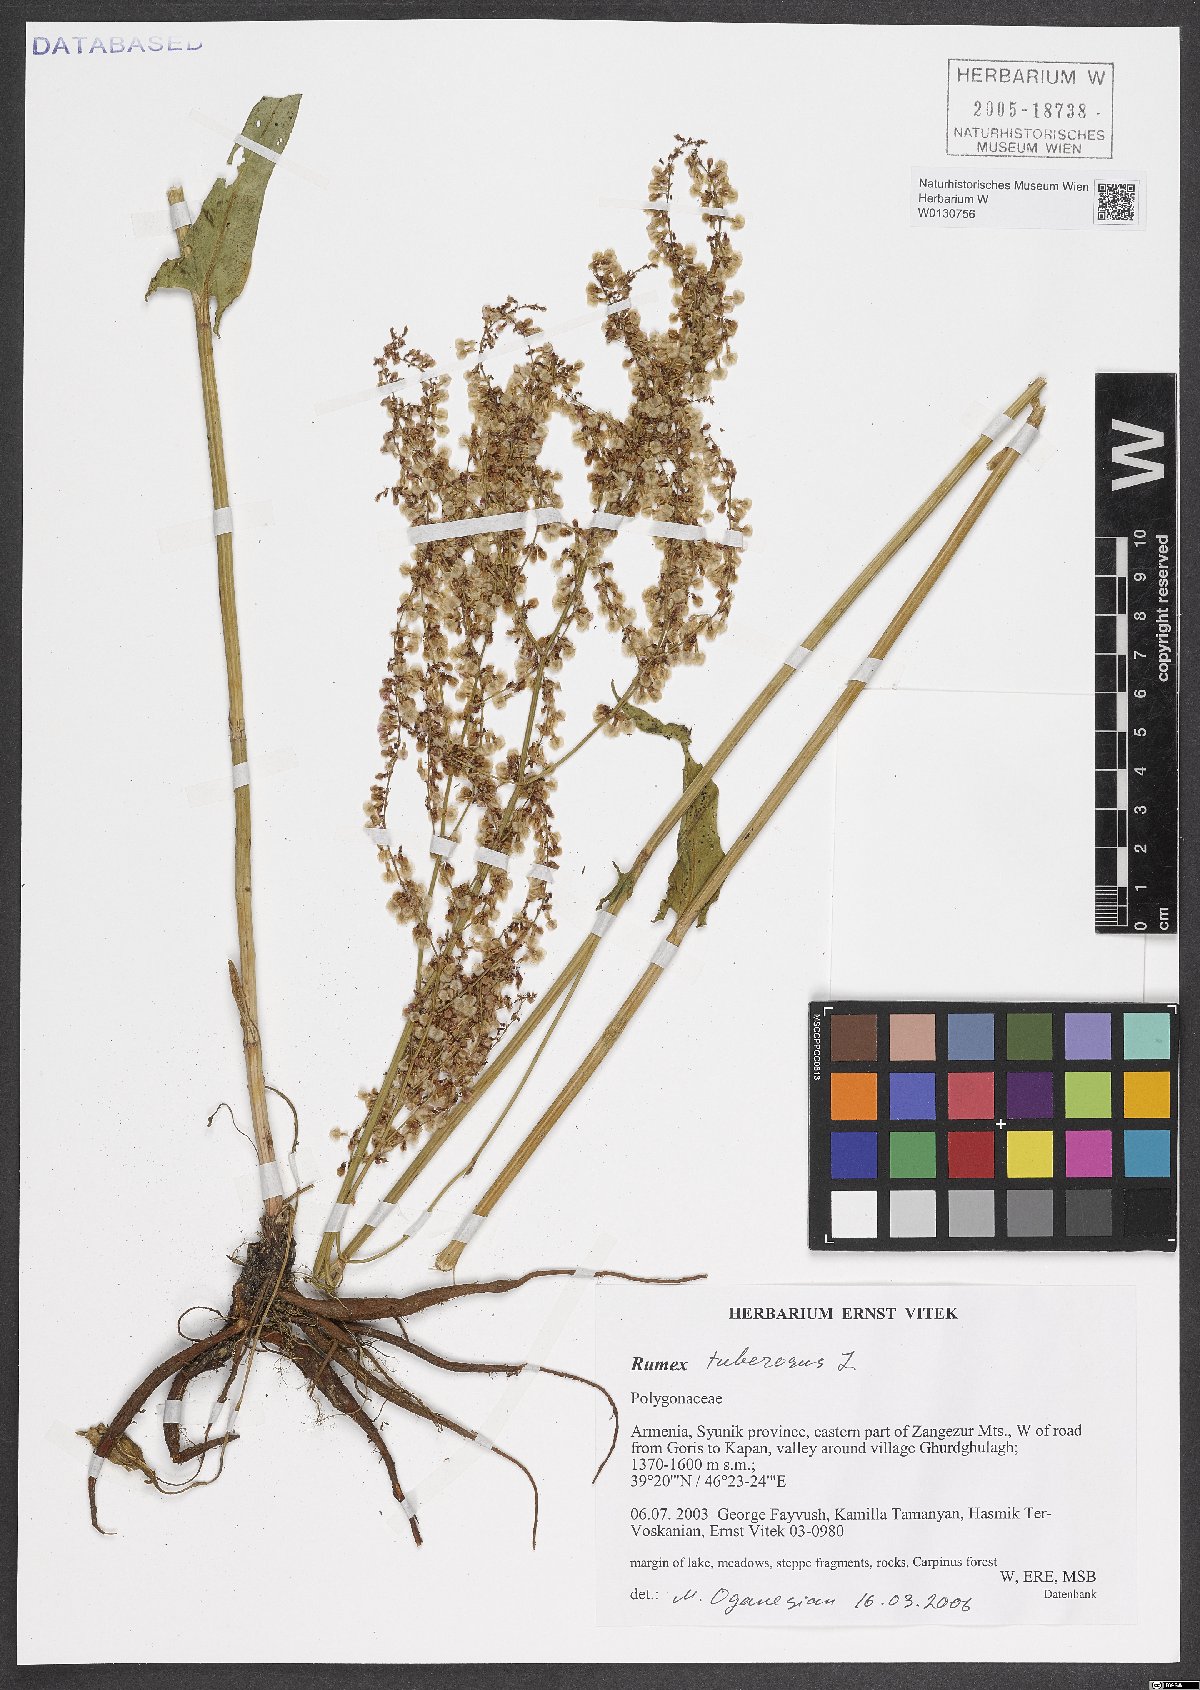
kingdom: Plantae
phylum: Tracheophyta
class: Magnoliopsida
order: Caryophyllales
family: Polygonaceae
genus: Rumex
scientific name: Rumex tuberosus
